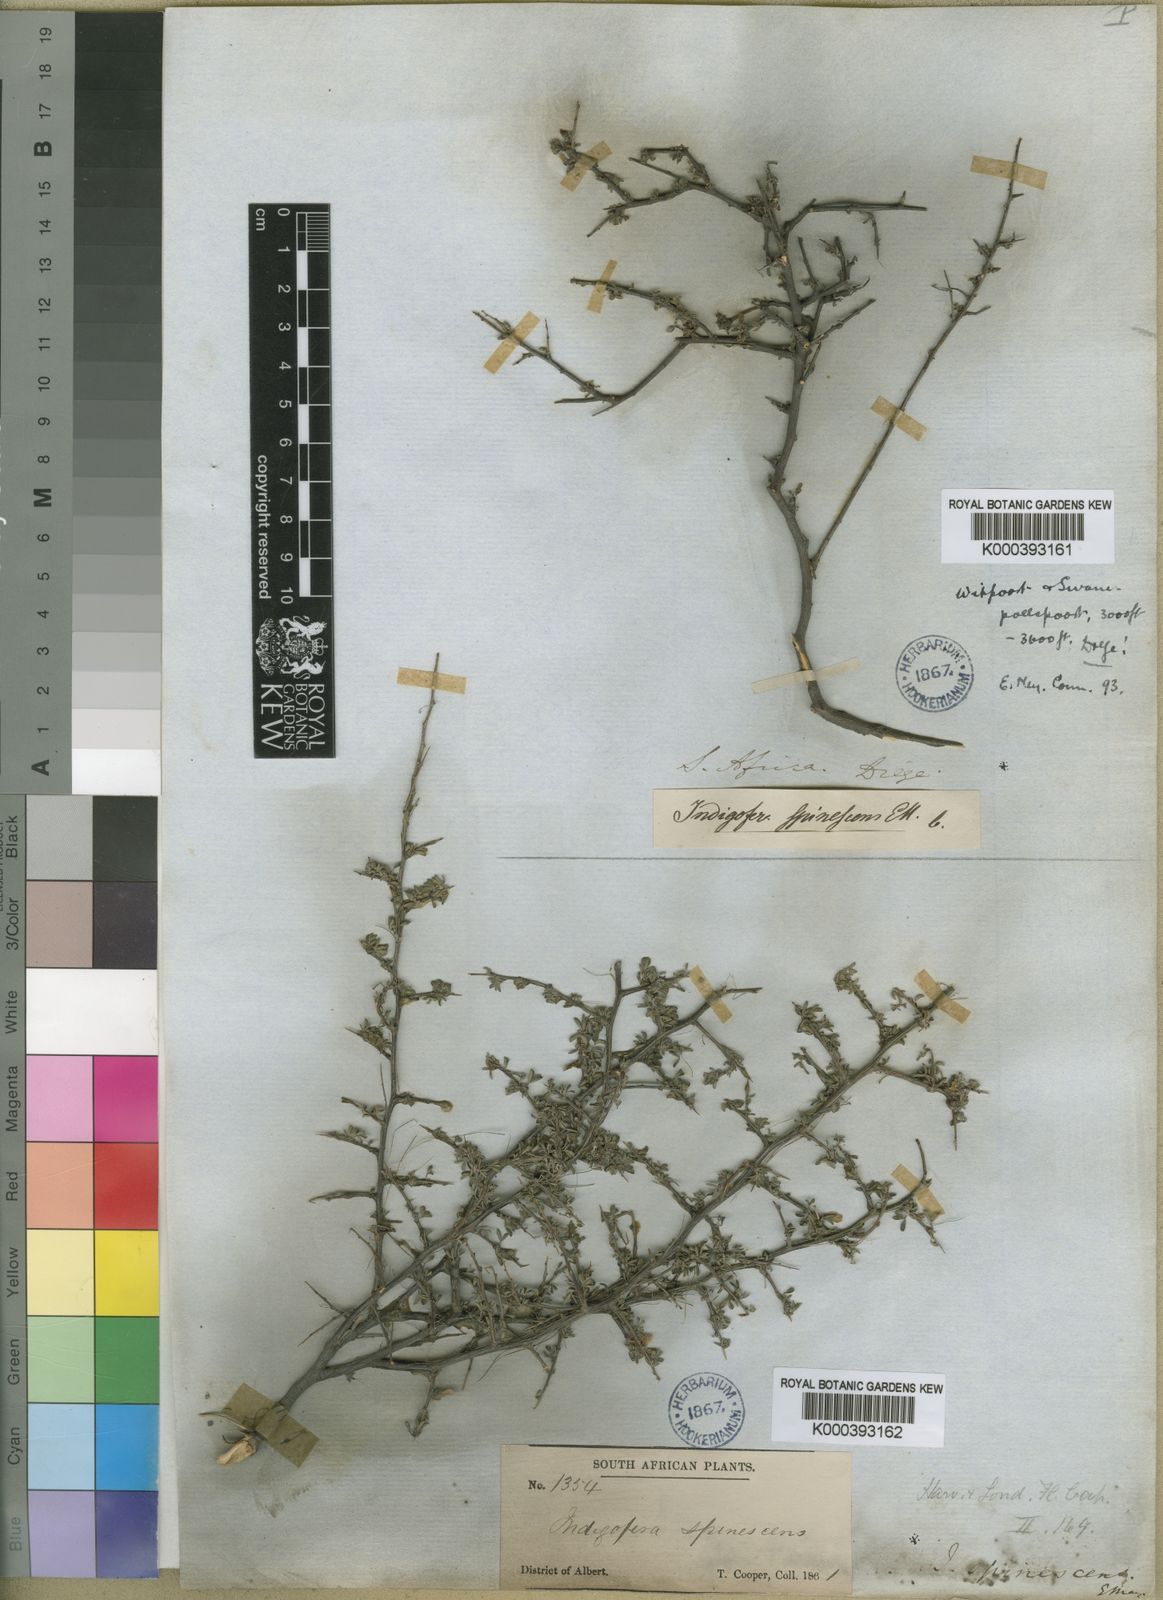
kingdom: Plantae
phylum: Tracheophyta
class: Magnoliopsida
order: Fabales
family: Fabaceae
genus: Indigofera
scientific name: Indigofera nigromontana
